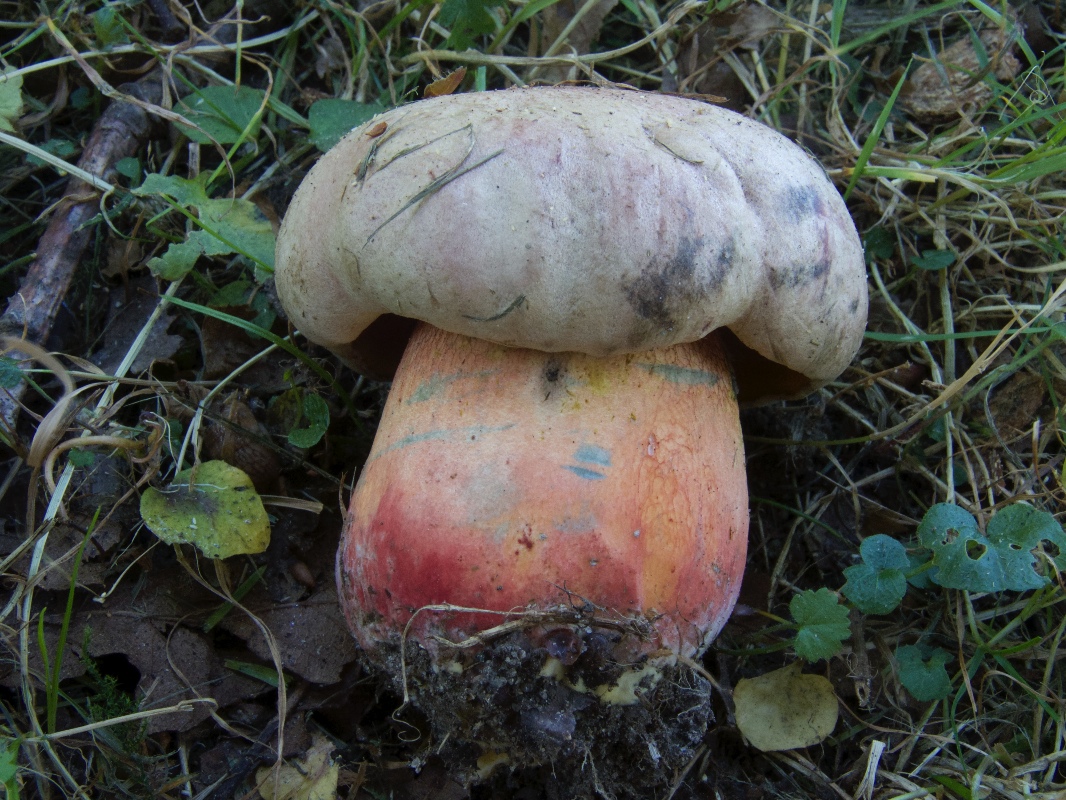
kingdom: Fungi
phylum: Basidiomycota
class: Agaricomycetes
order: Boletales
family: Boletaceae
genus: Rubroboletus
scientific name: Rubroboletus legaliae
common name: djævle-rørhat
